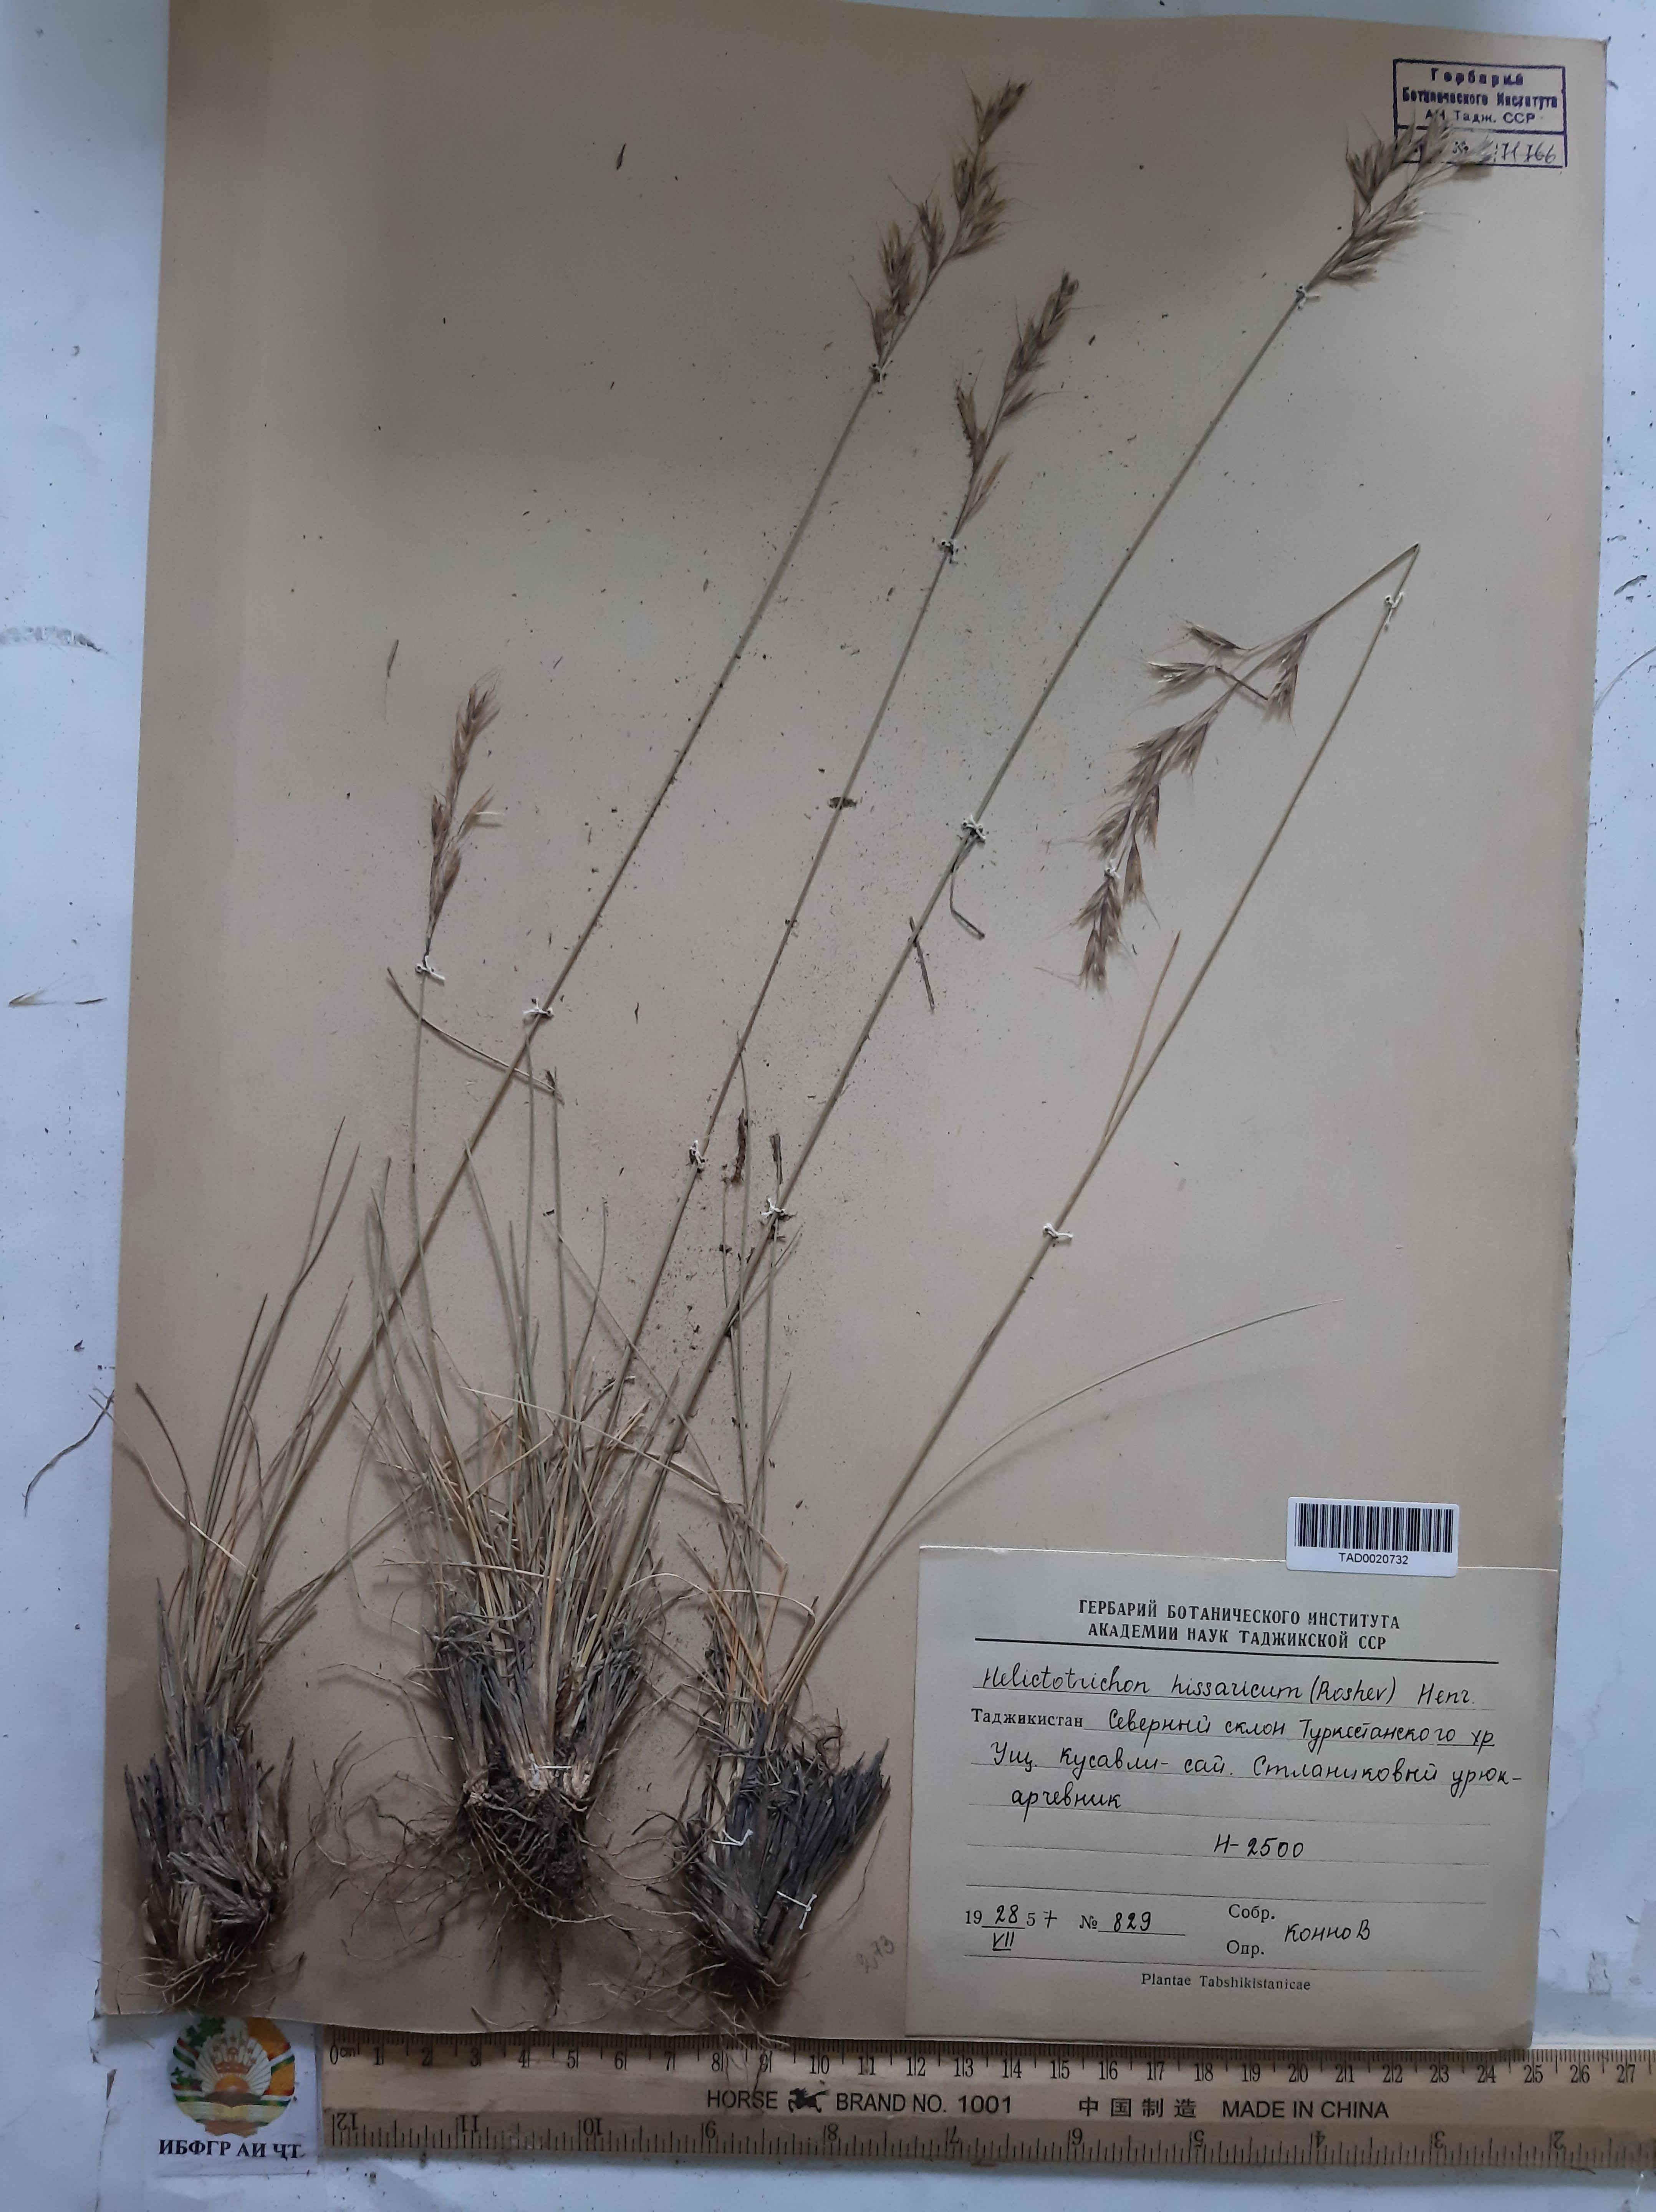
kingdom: Plantae
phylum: Tracheophyta
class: Liliopsida
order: Poales
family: Poaceae
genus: Helictotrichon
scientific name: Helictotrichon hissaricum
